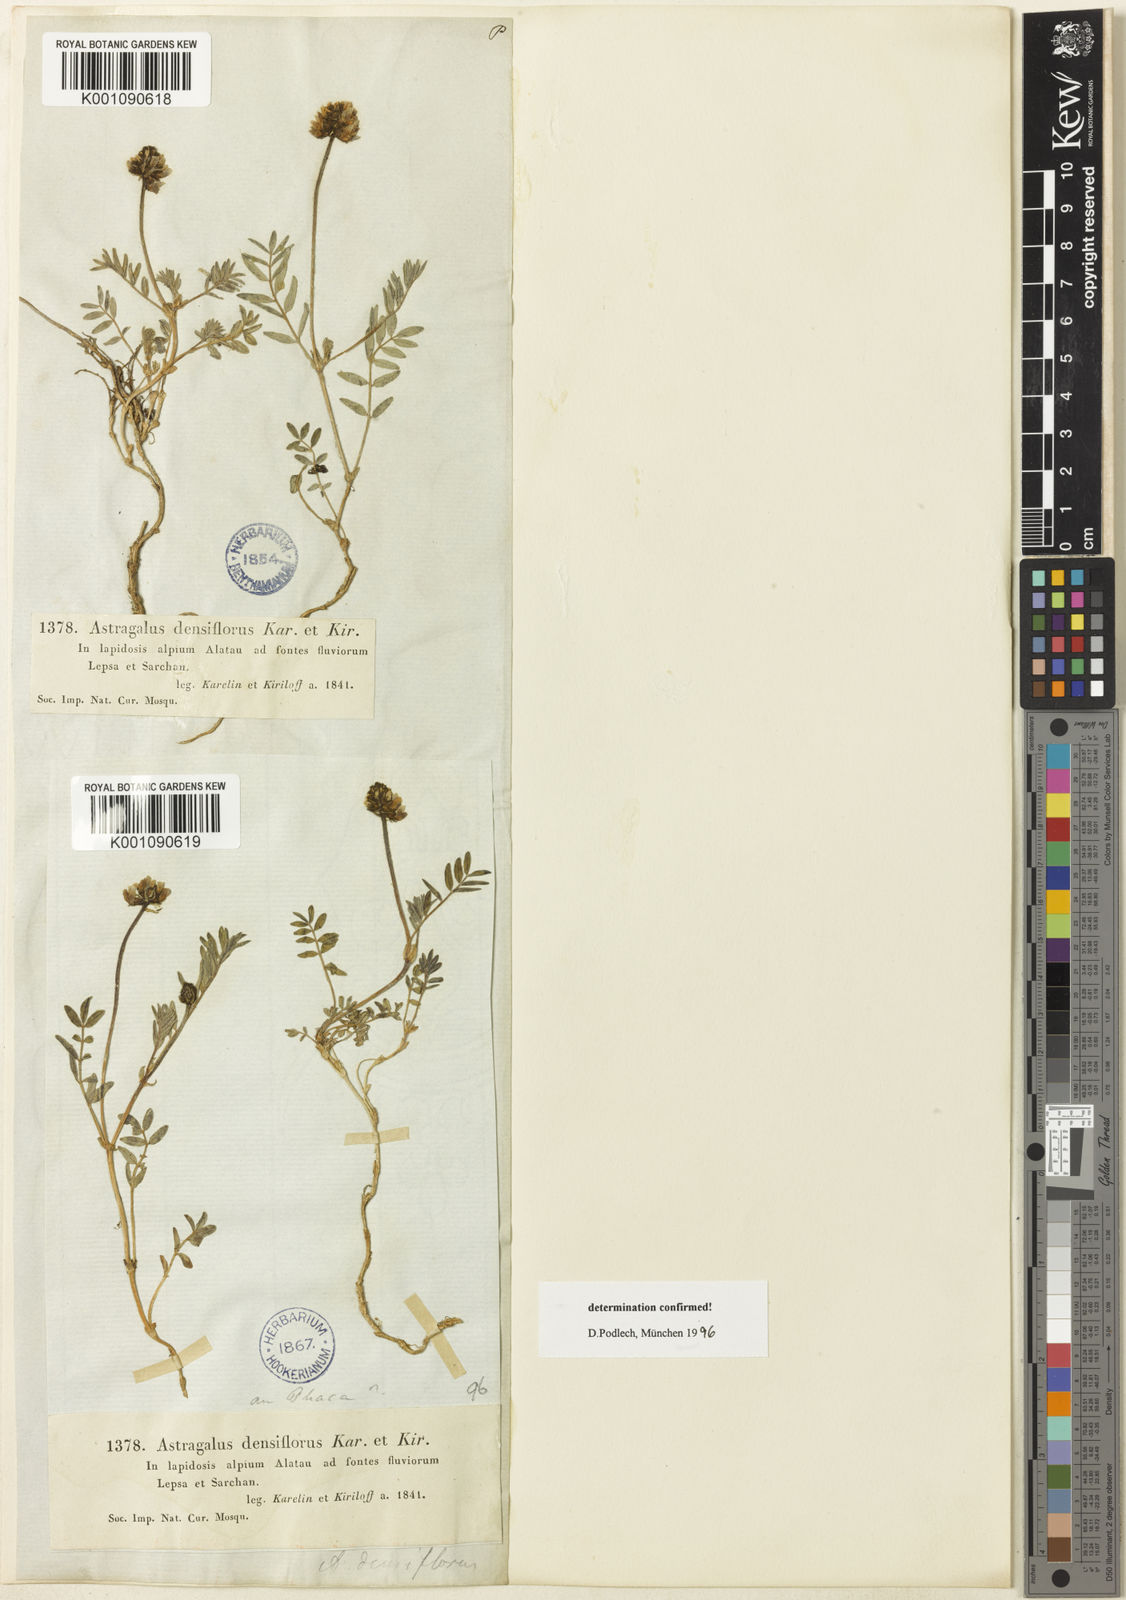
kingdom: Plantae
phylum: Tracheophyta
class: Magnoliopsida
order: Fabales
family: Fabaceae
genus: Astragalus
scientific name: Astragalus
